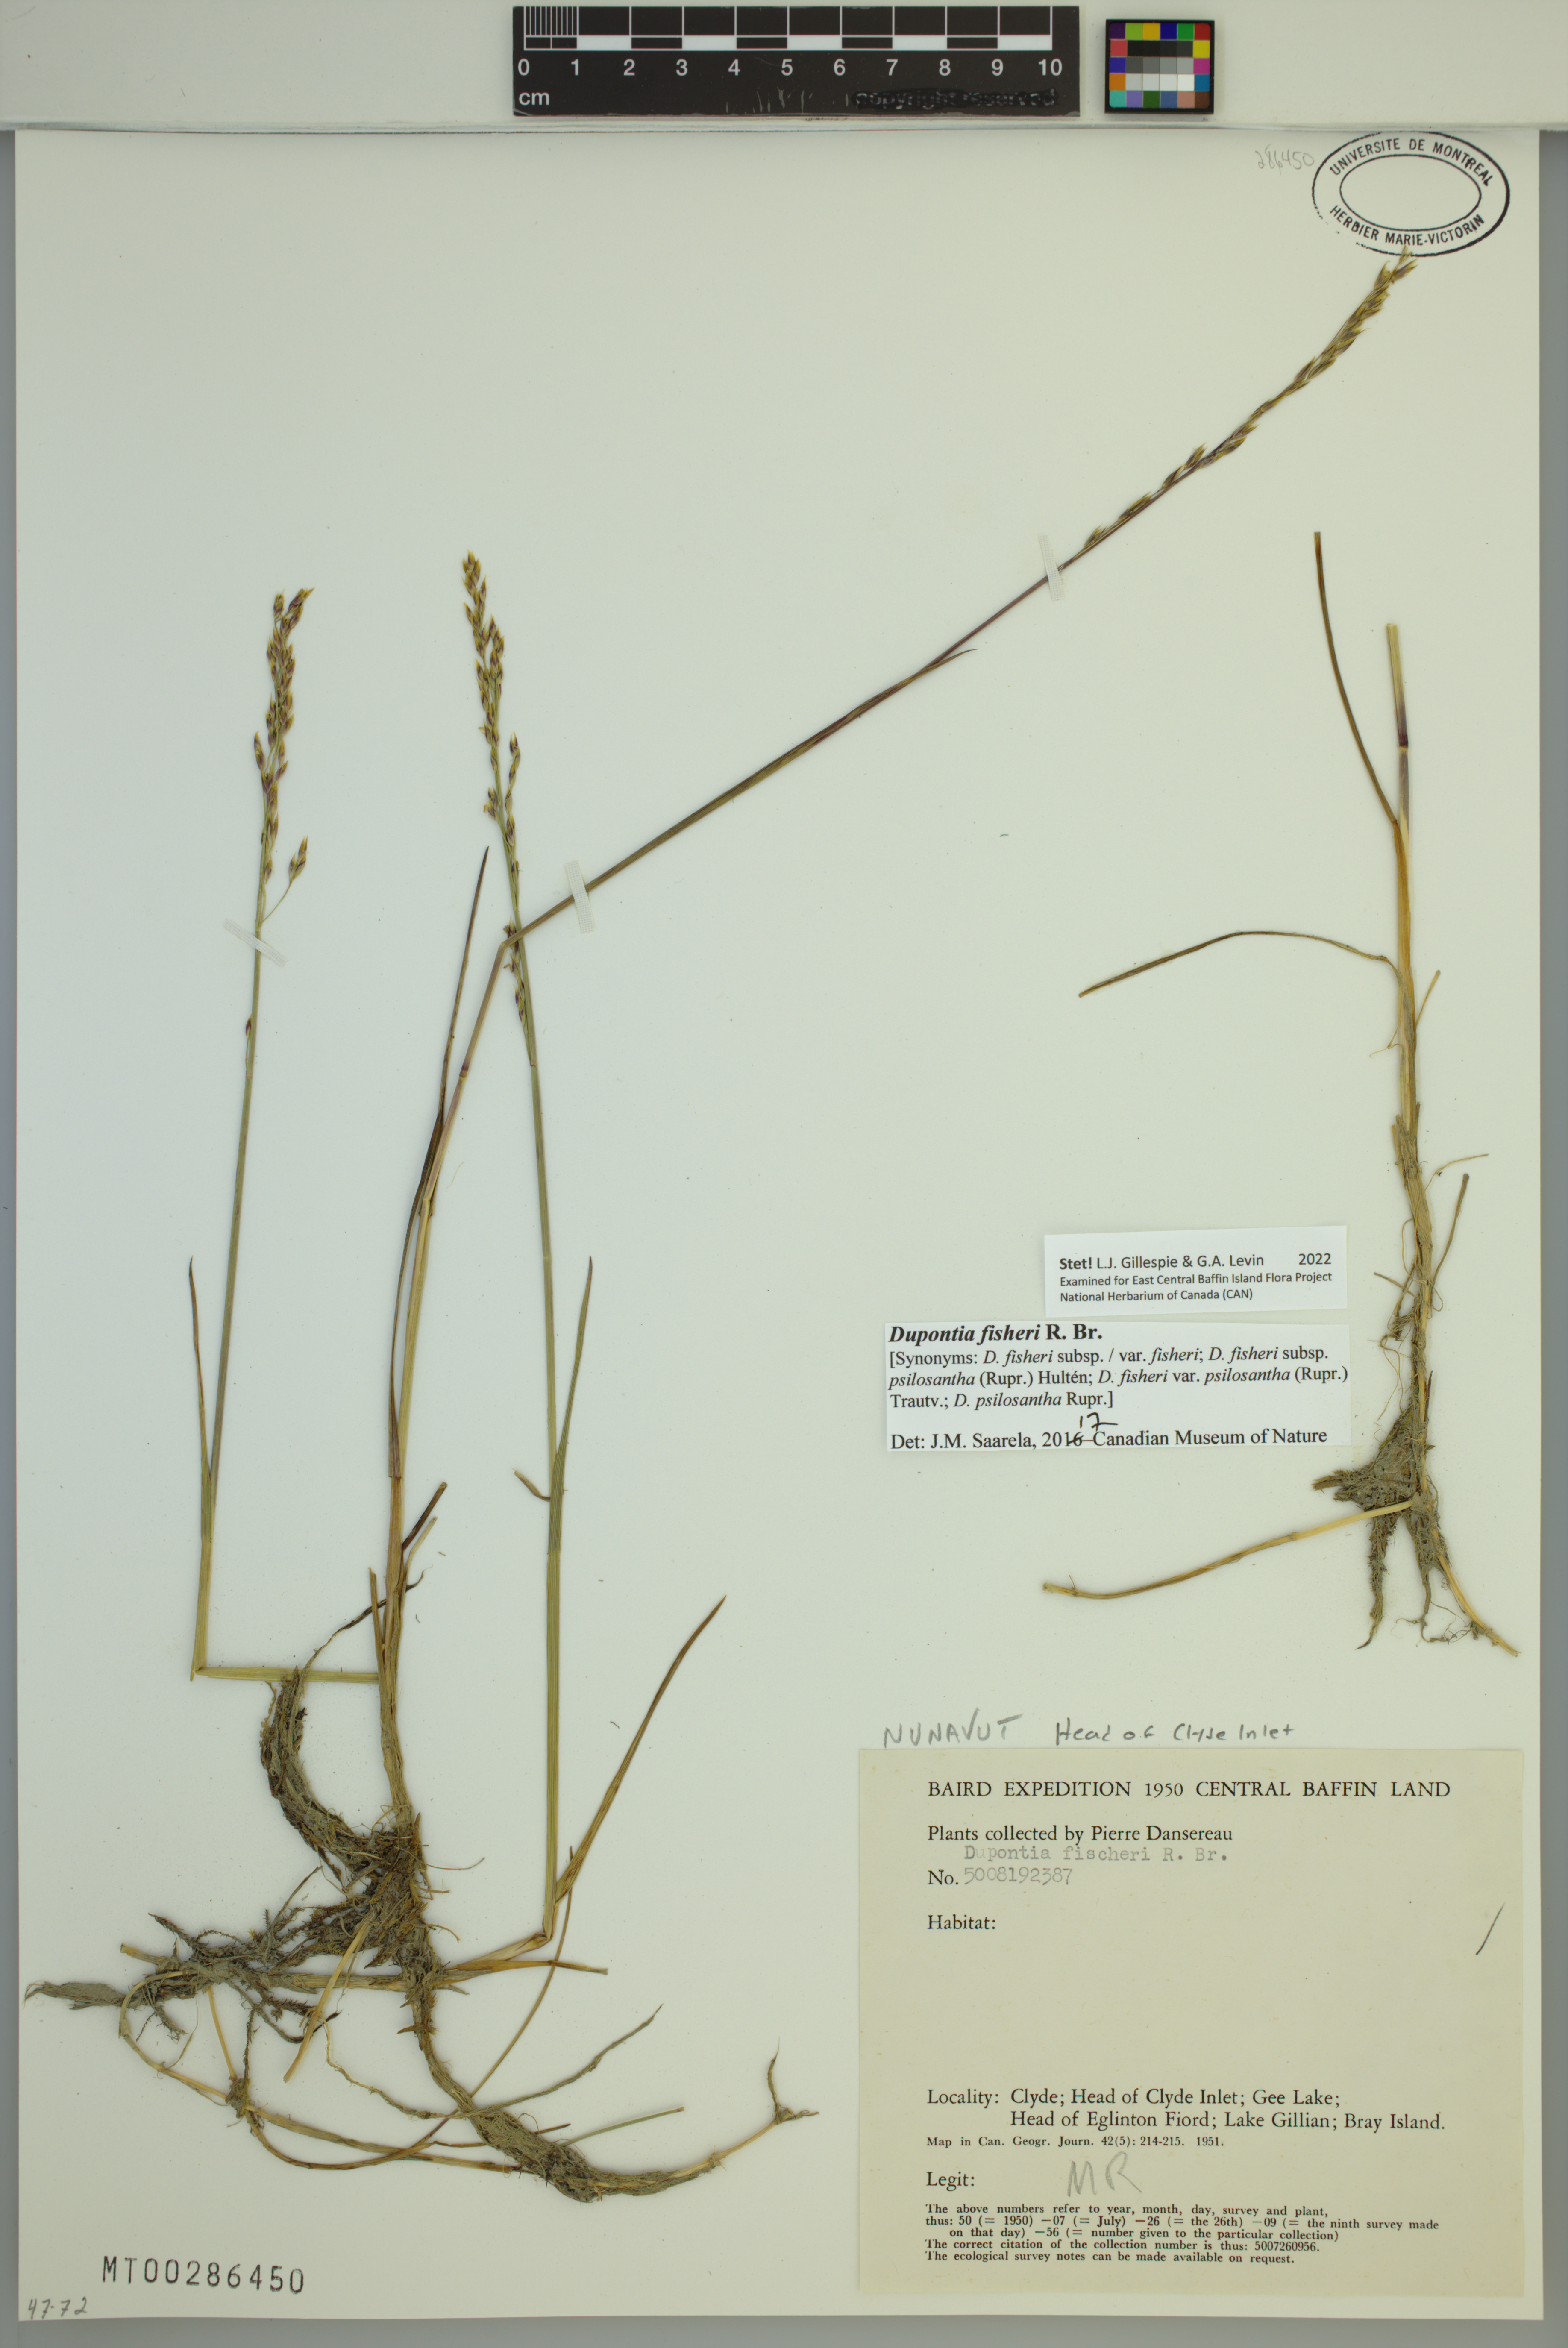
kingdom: Plantae
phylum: Tracheophyta
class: Liliopsida
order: Poales
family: Poaceae
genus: Dupontia
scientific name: Dupontia fisheri
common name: Tundra grass
